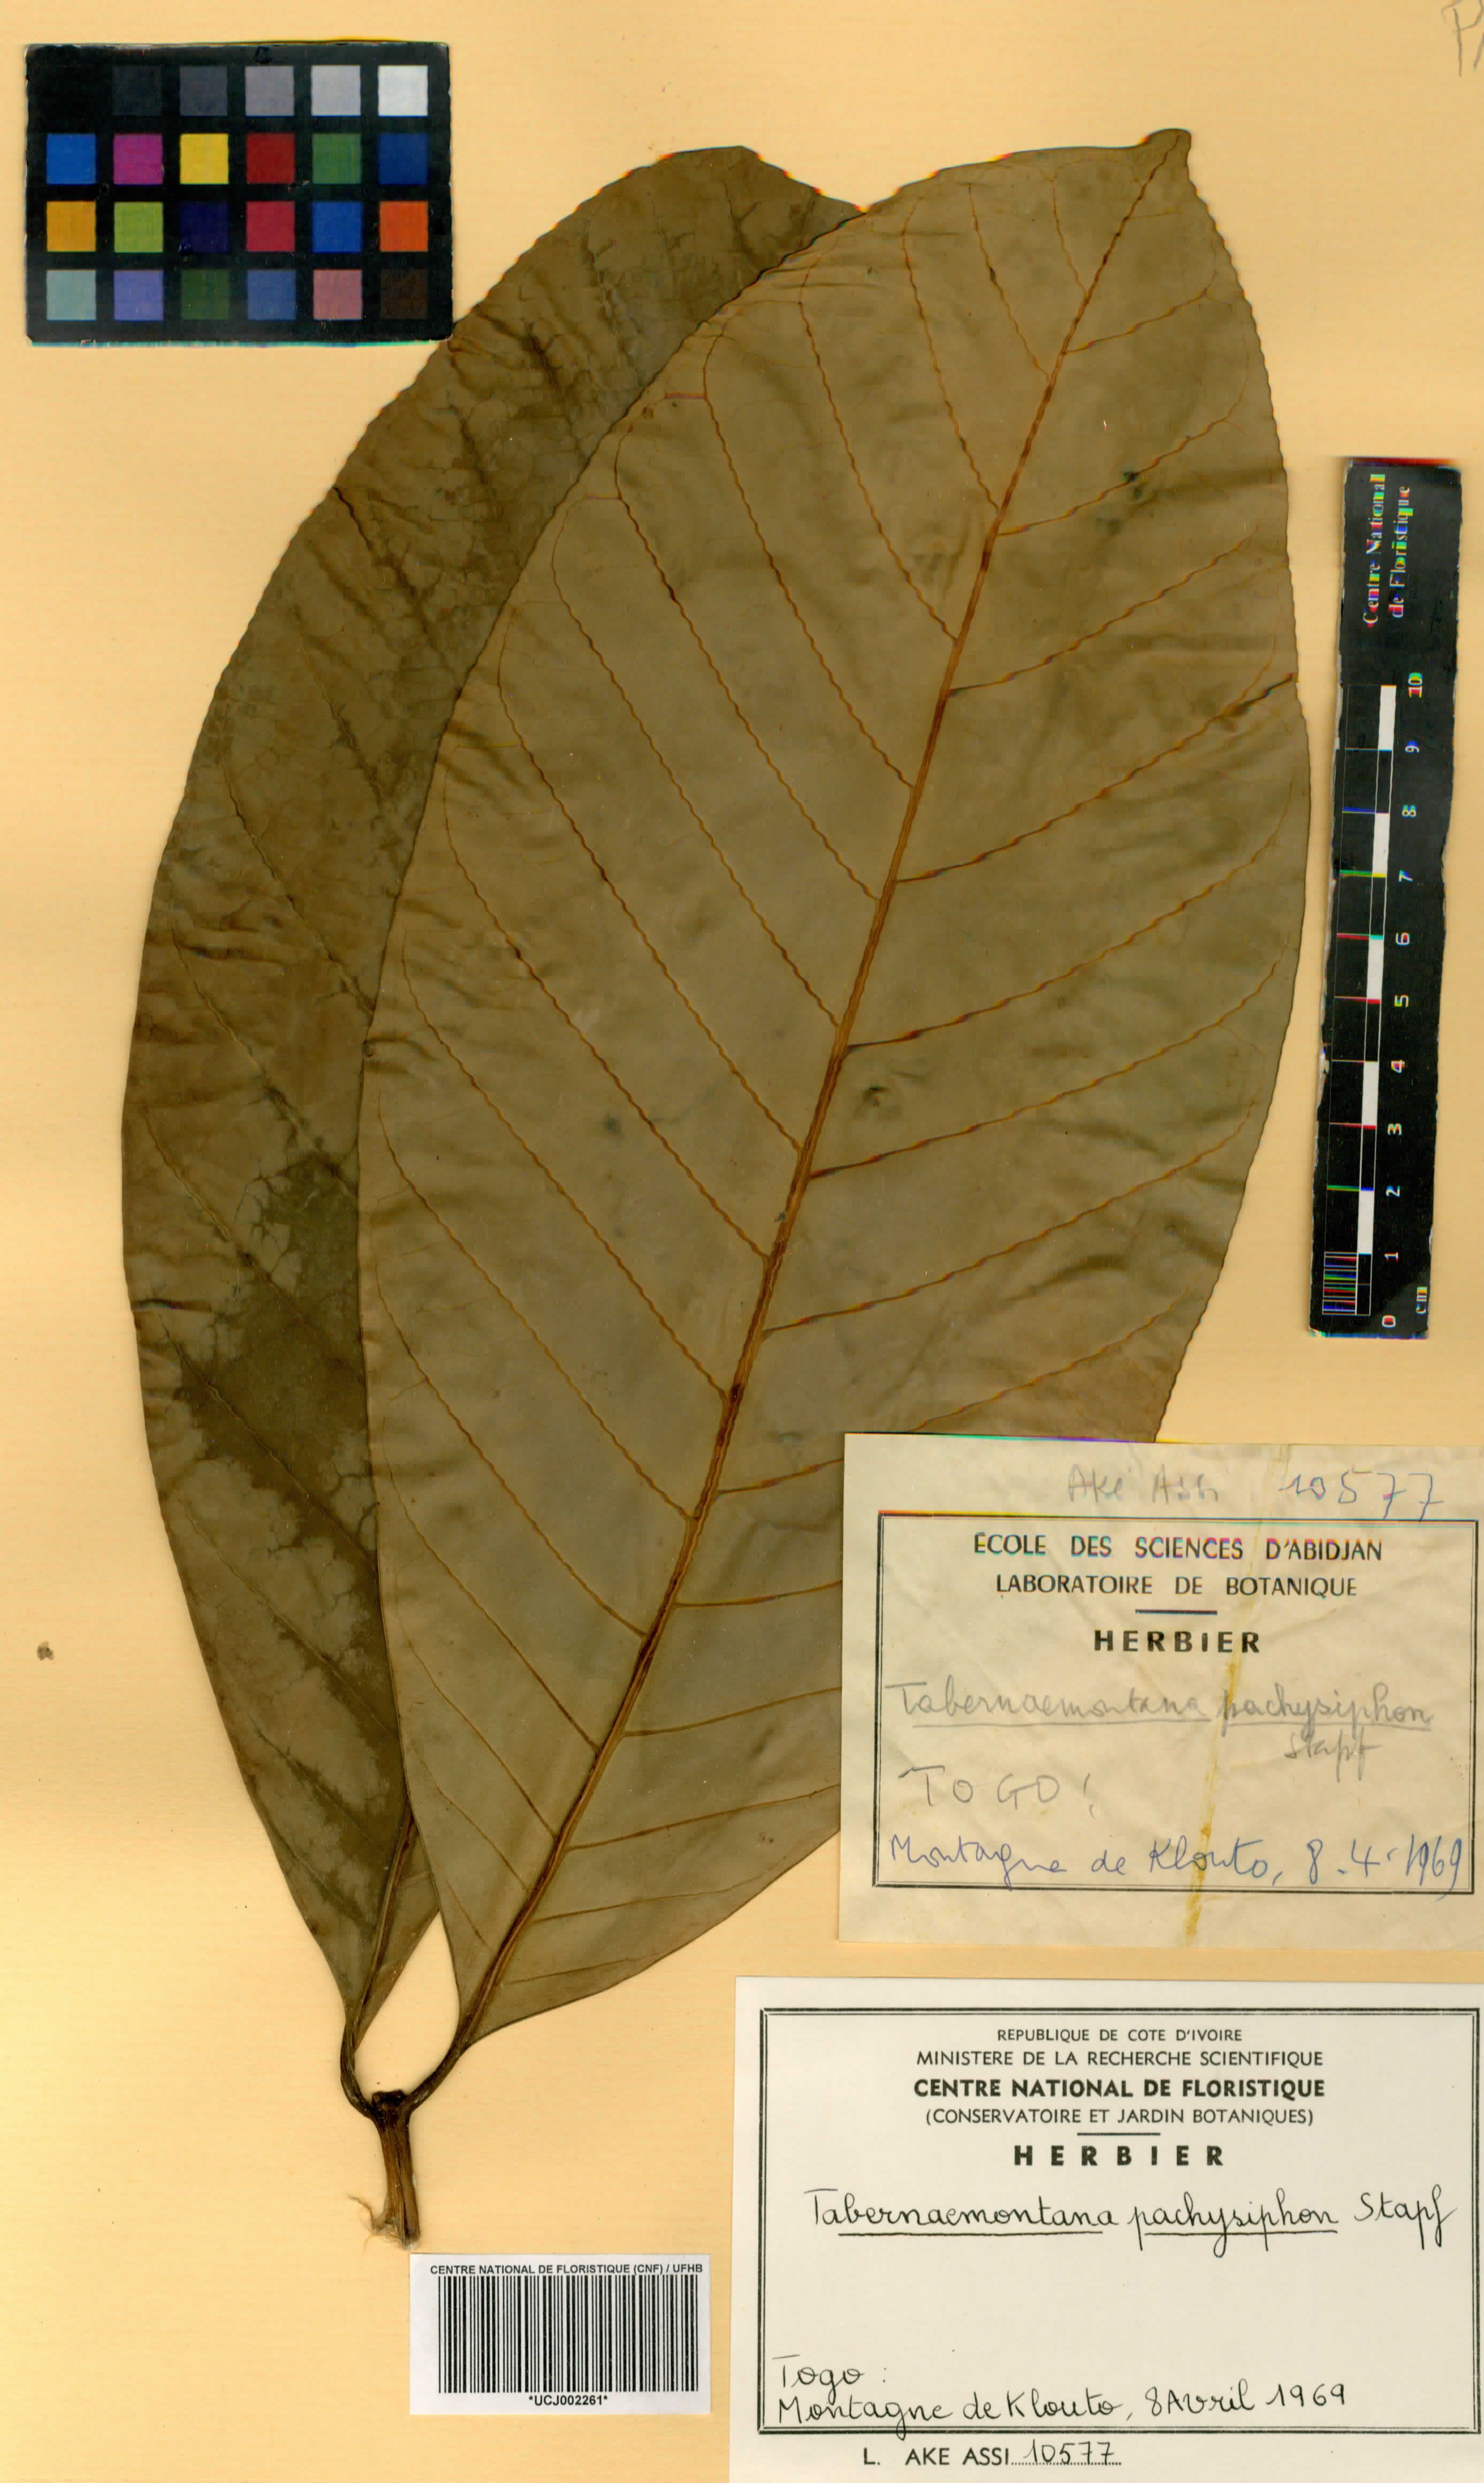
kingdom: Plantae
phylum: Tracheophyta
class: Magnoliopsida
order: Gentianales
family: Apocynaceae
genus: Tabernaemontana
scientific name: Tabernaemontana pachysiphon
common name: Giant pinwheel-flower
